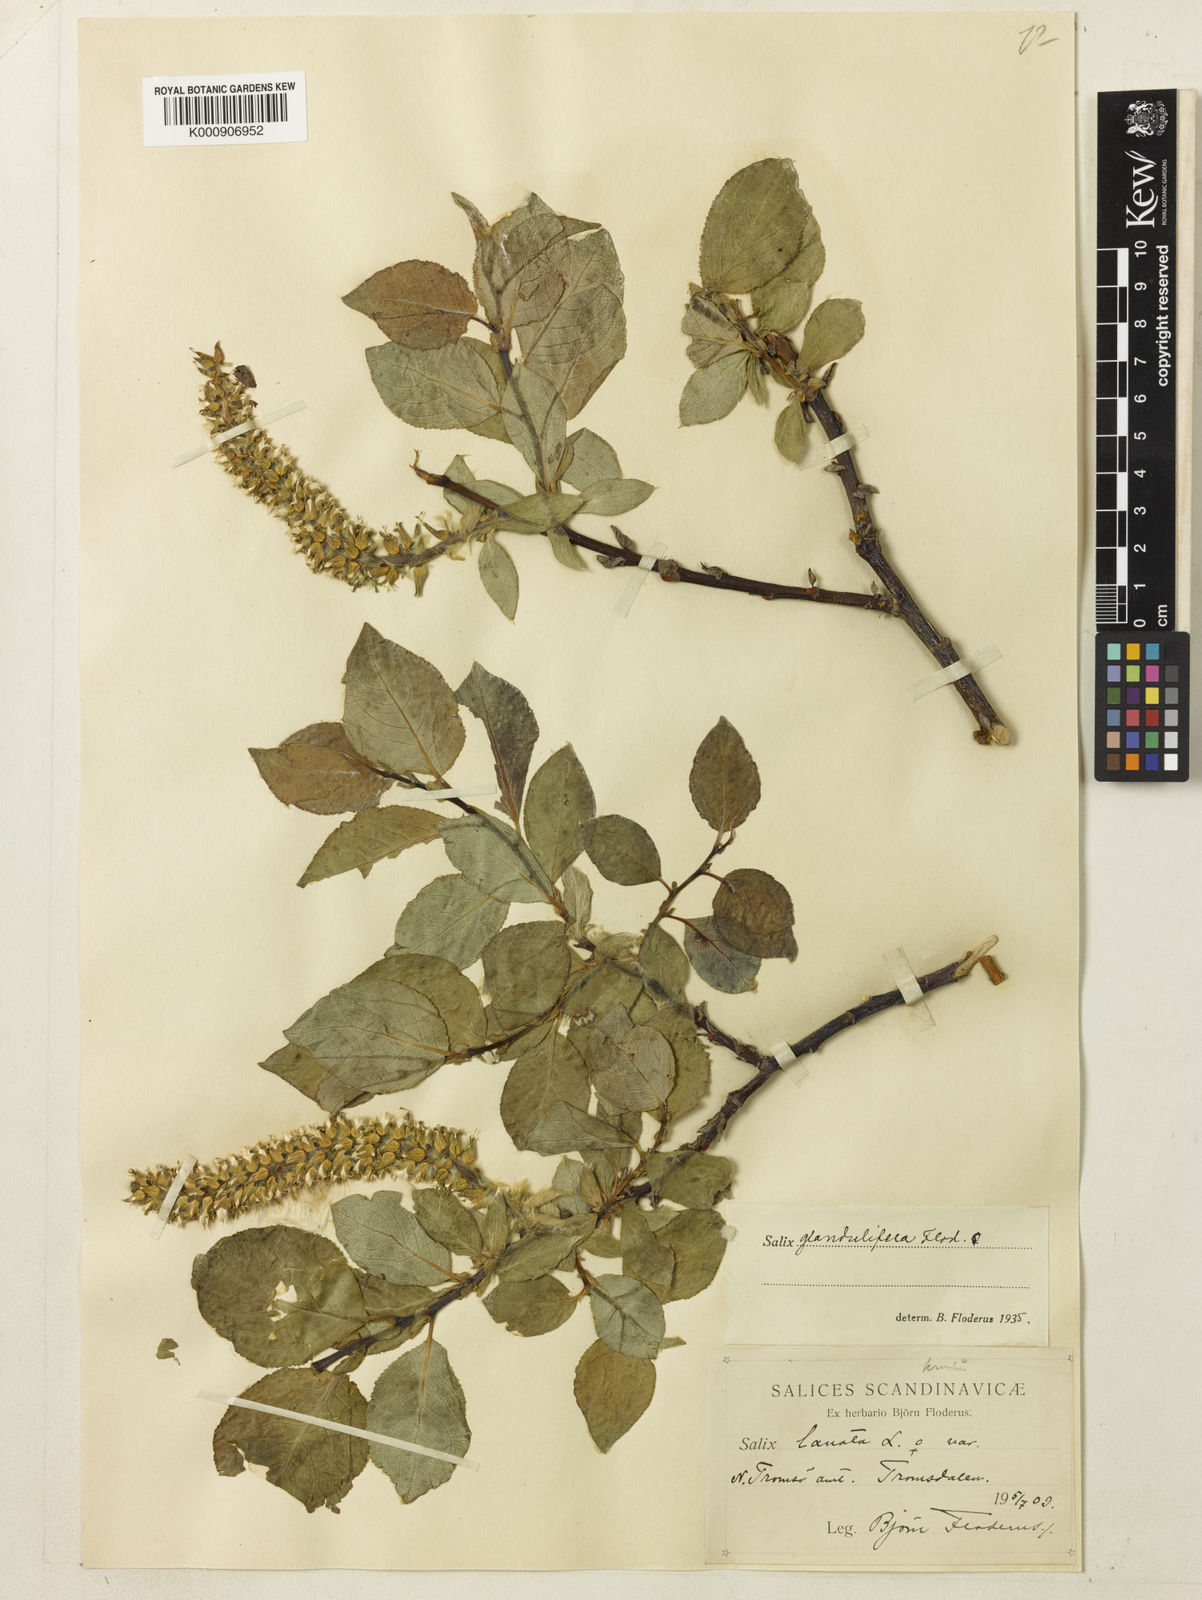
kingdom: Plantae
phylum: Tracheophyta
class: Magnoliopsida
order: Malpighiales
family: Salicaceae
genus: Salix
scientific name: Salix lanata
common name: Woolly willow
